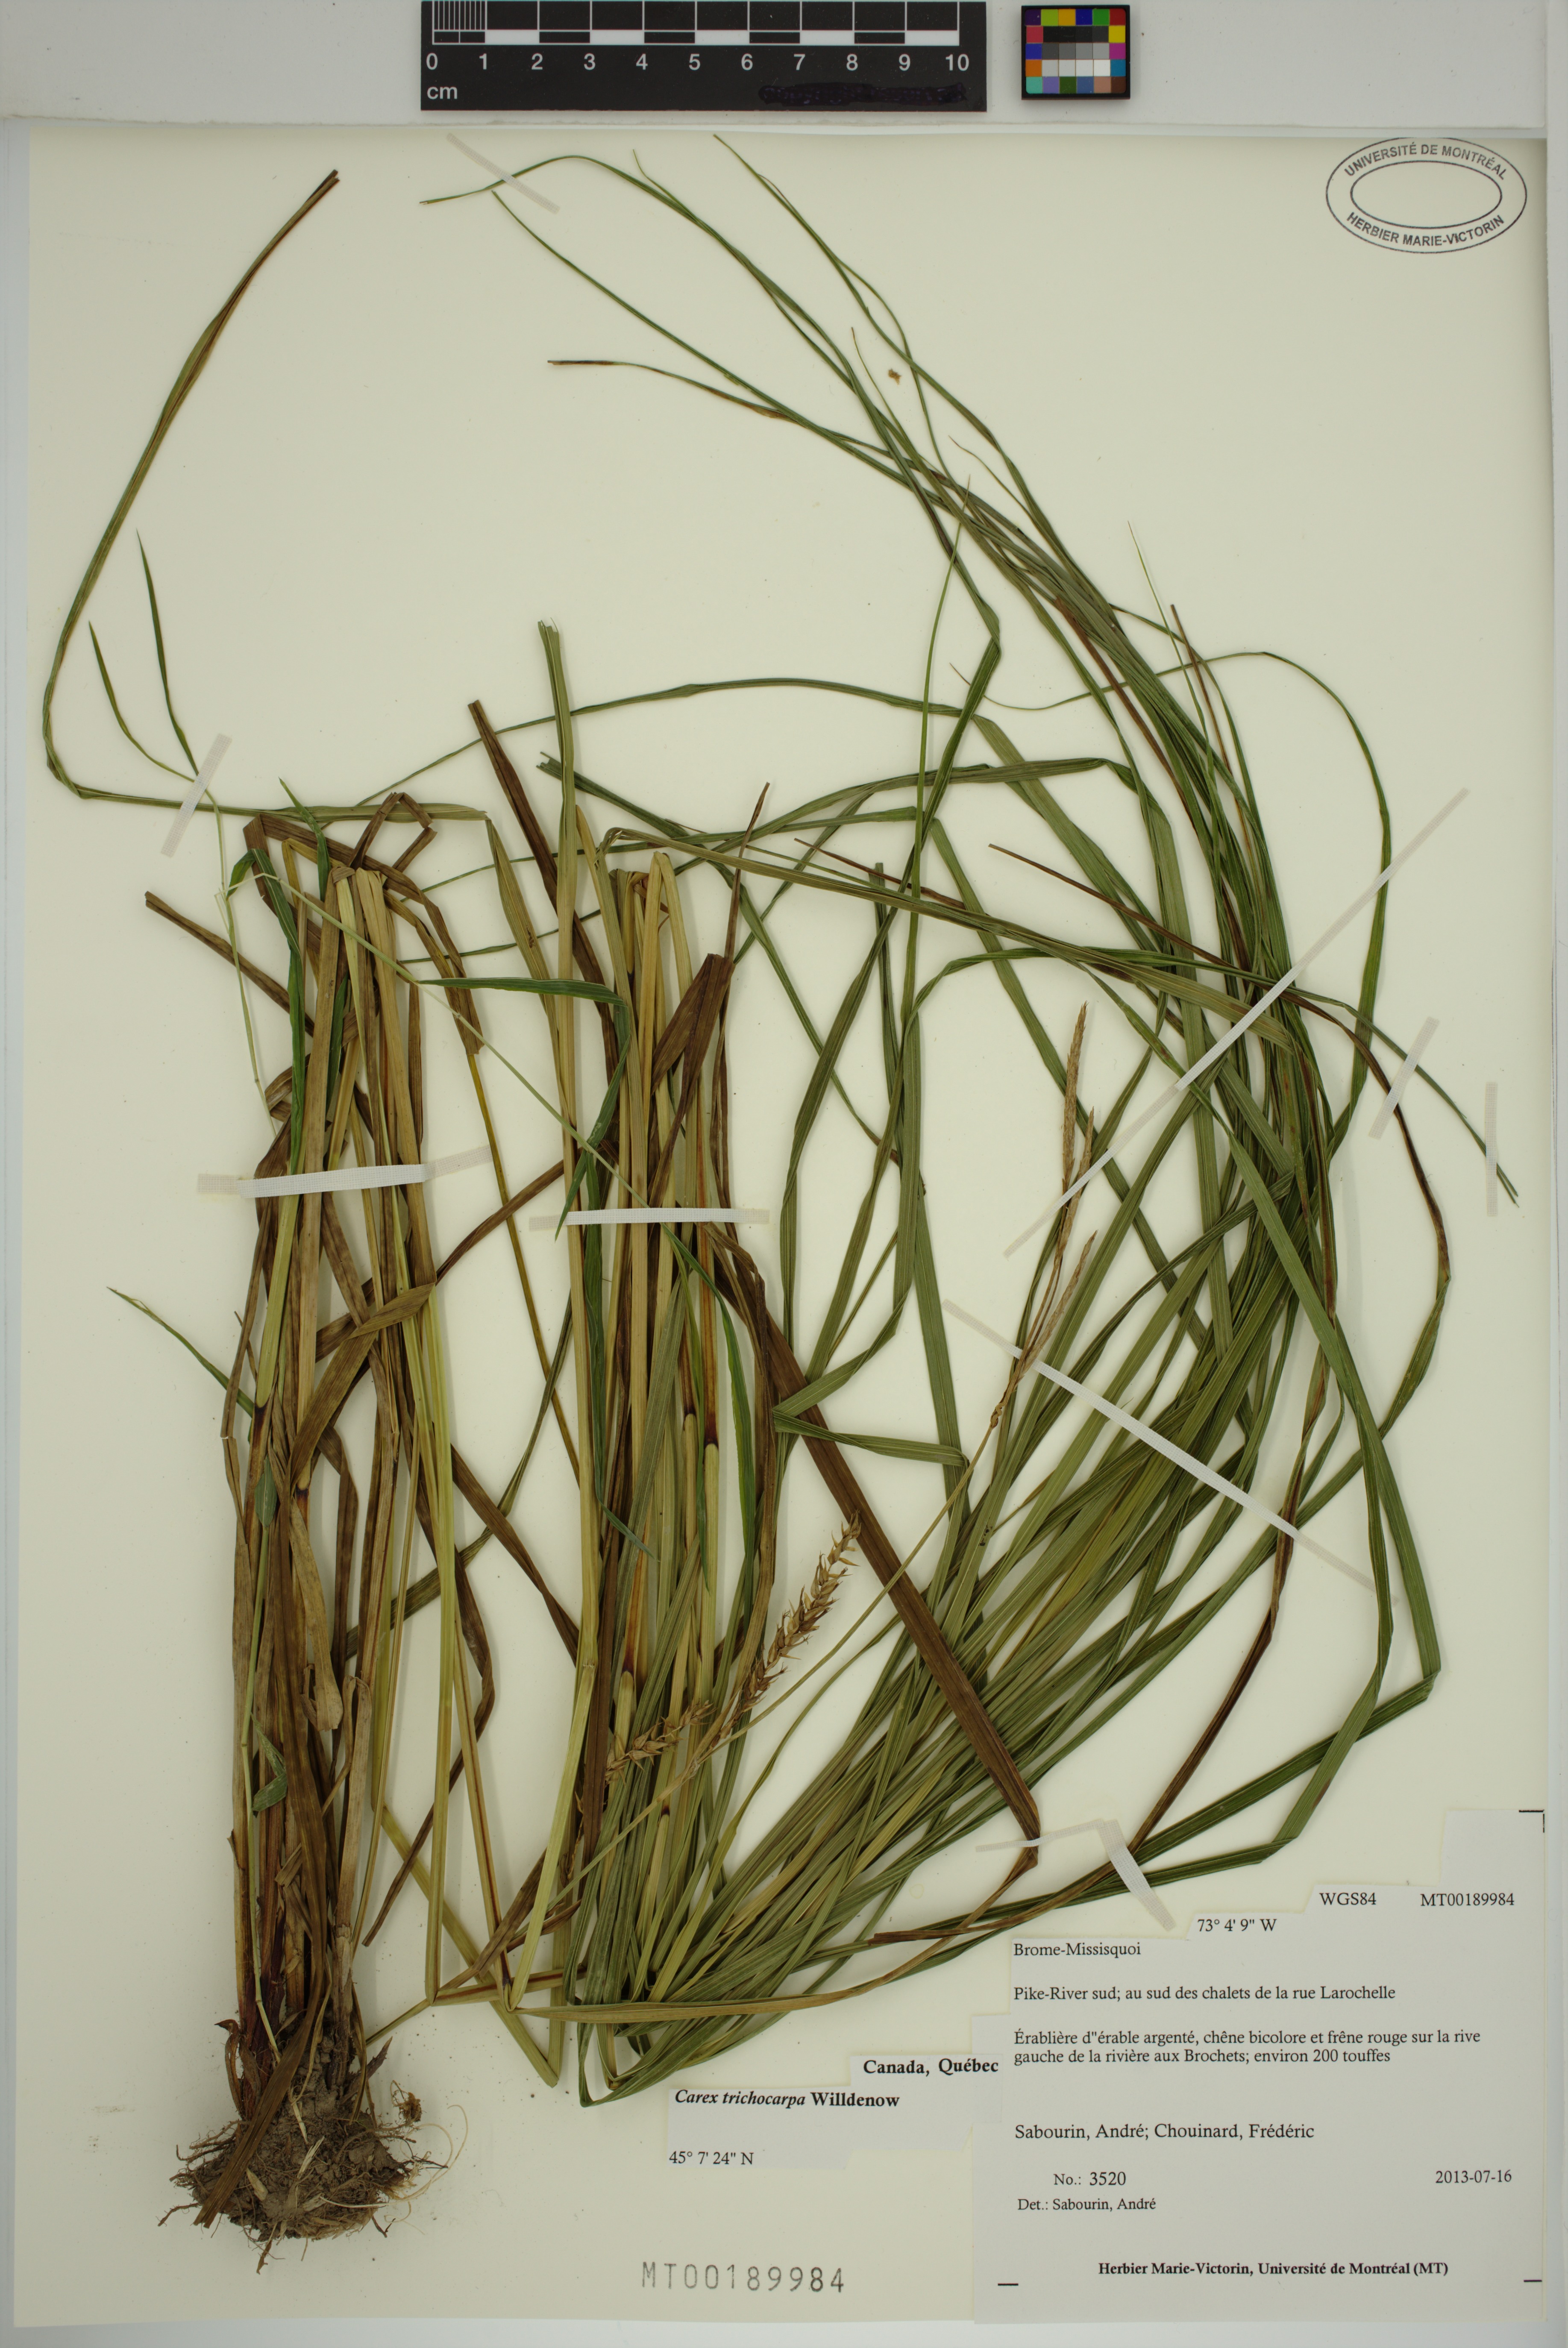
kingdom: Plantae
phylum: Tracheophyta
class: Liliopsida
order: Poales
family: Cyperaceae
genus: Carex
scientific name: Carex trichocarpa
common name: Hairy-fruited lake sedge
